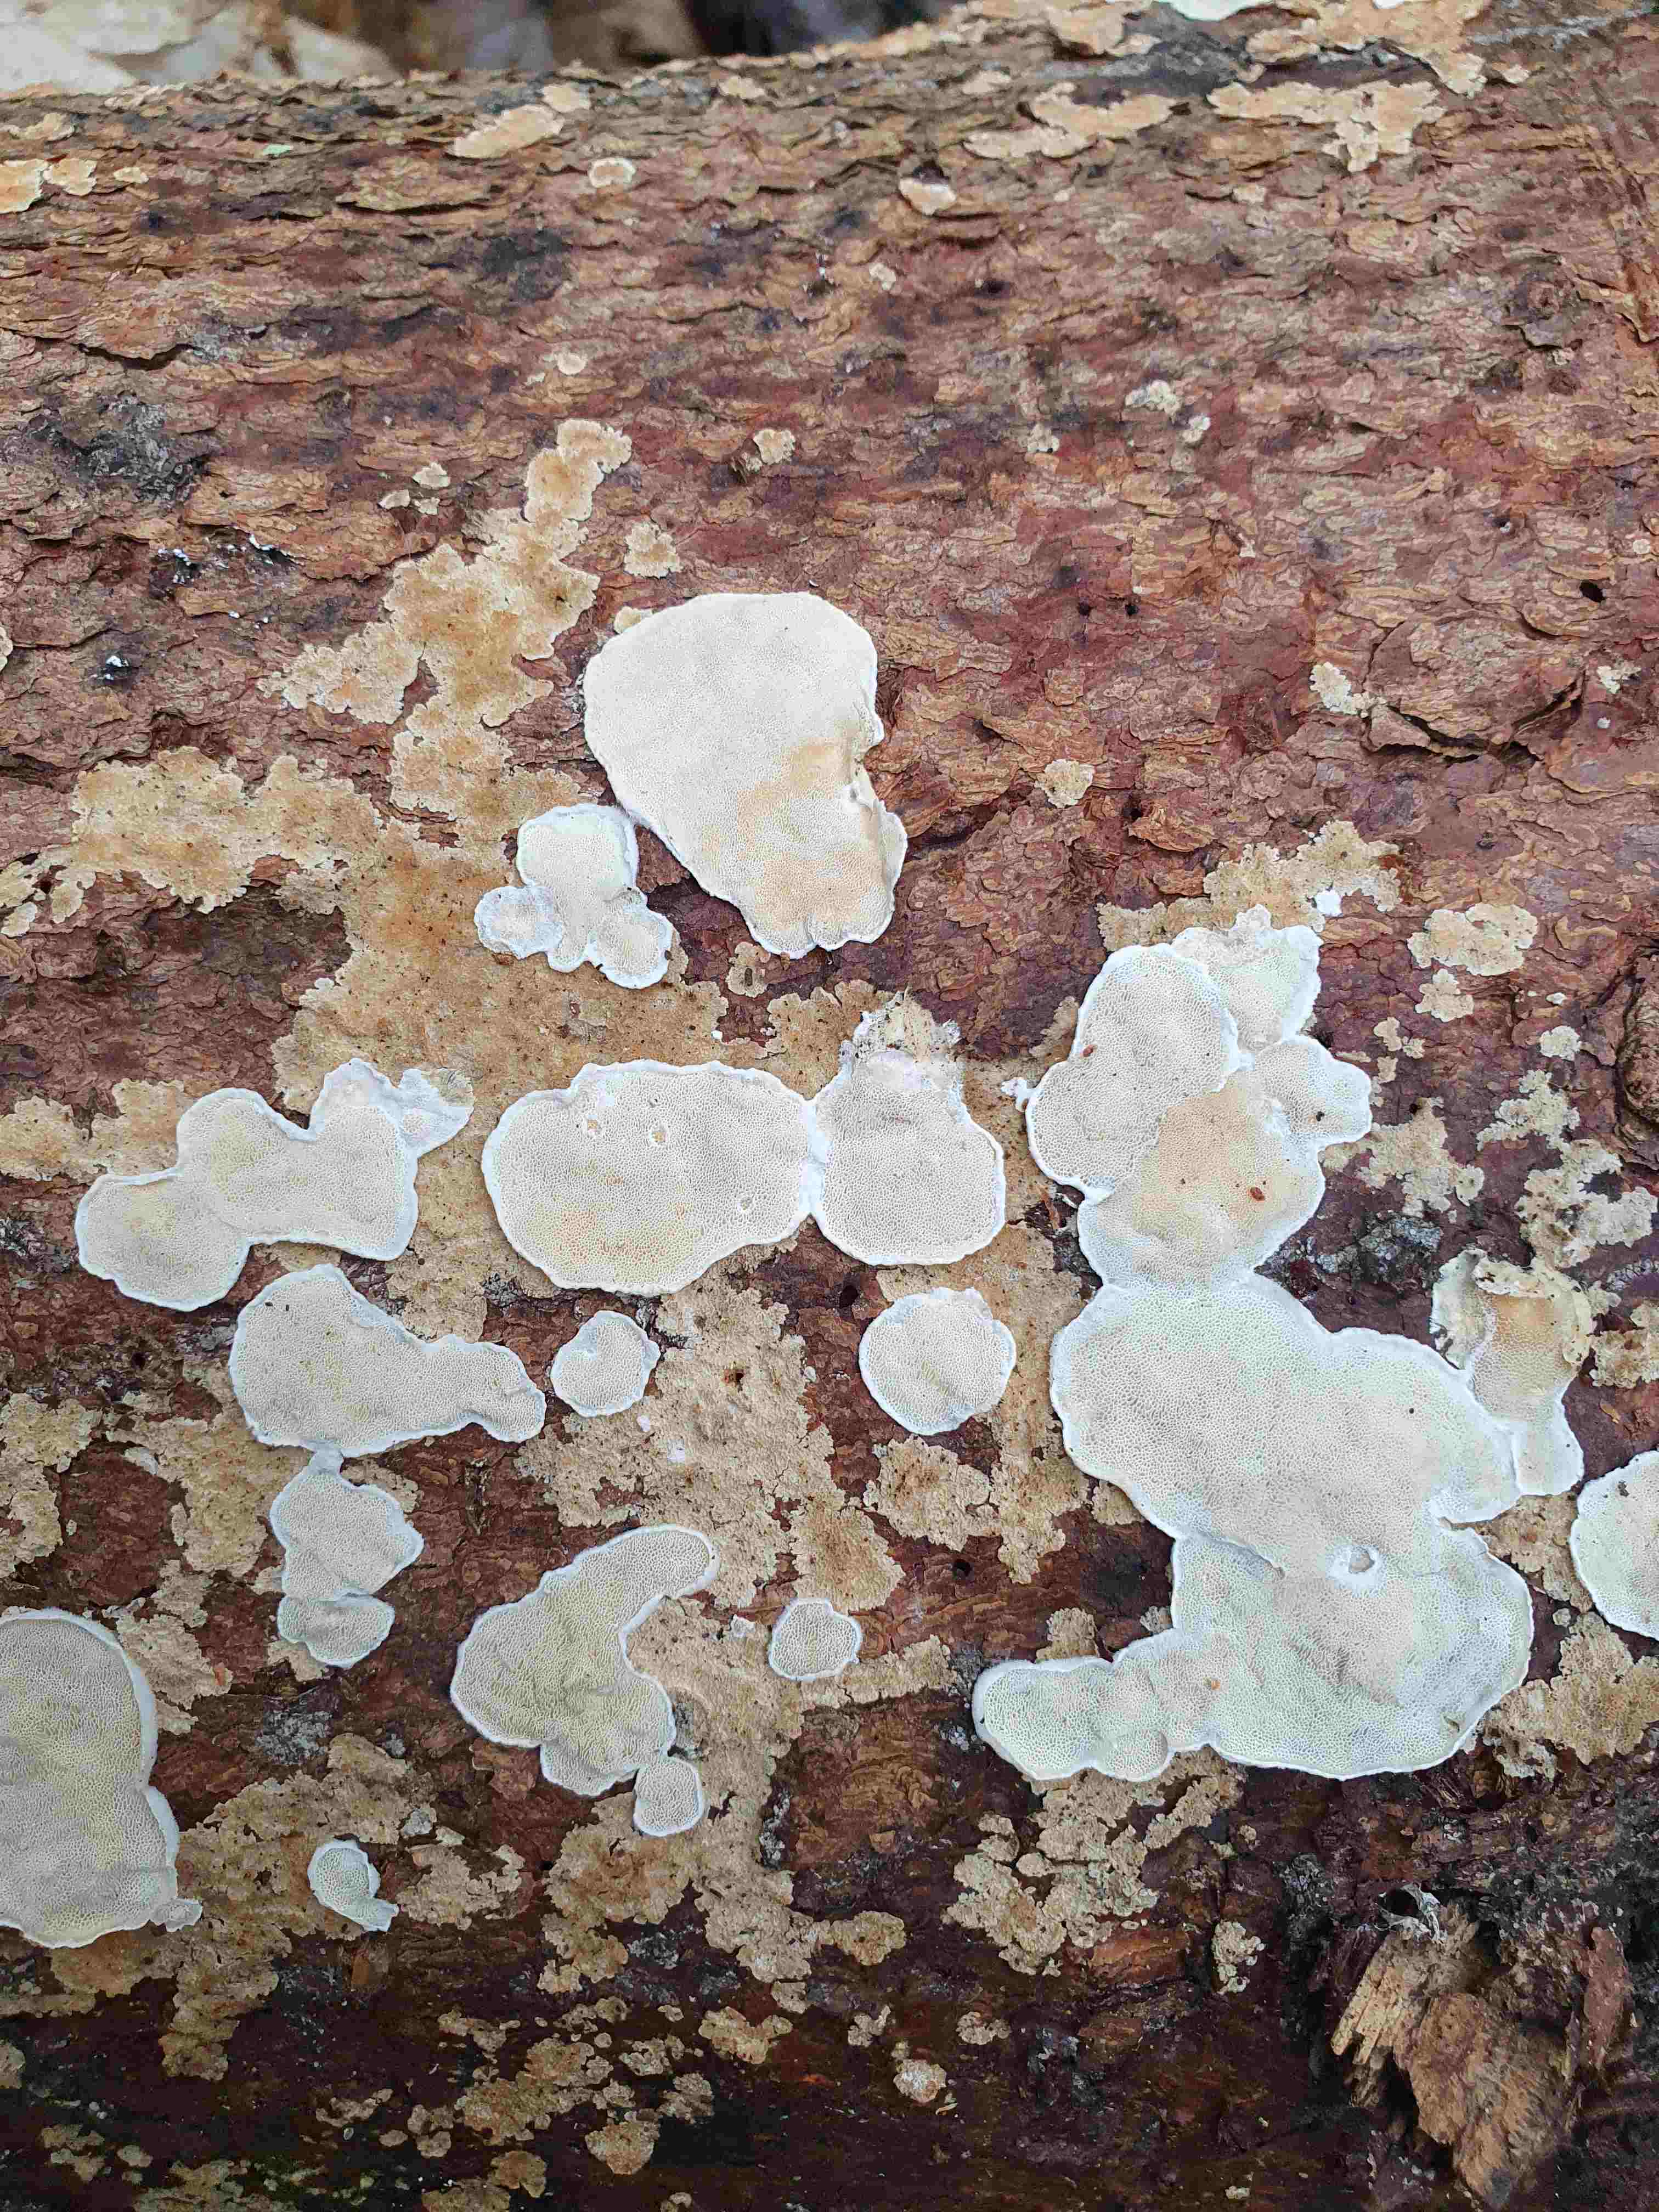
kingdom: Fungi
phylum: Basidiomycota
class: Agaricomycetes
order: Polyporales
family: Incrustoporiaceae
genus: Skeletocutis
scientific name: Skeletocutis carneogrisea
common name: rødgrå krystalporesvamp
